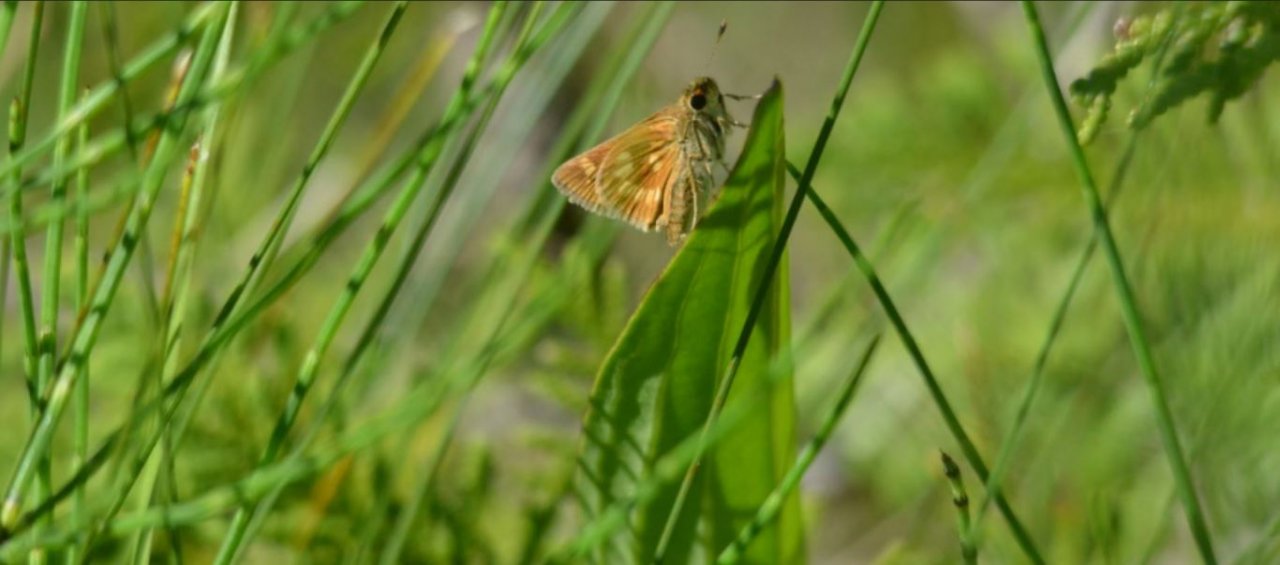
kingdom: Animalia
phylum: Arthropoda
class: Insecta
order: Lepidoptera
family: Hesperiidae
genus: Polites
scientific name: Polites
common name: Long Dash Skipper
